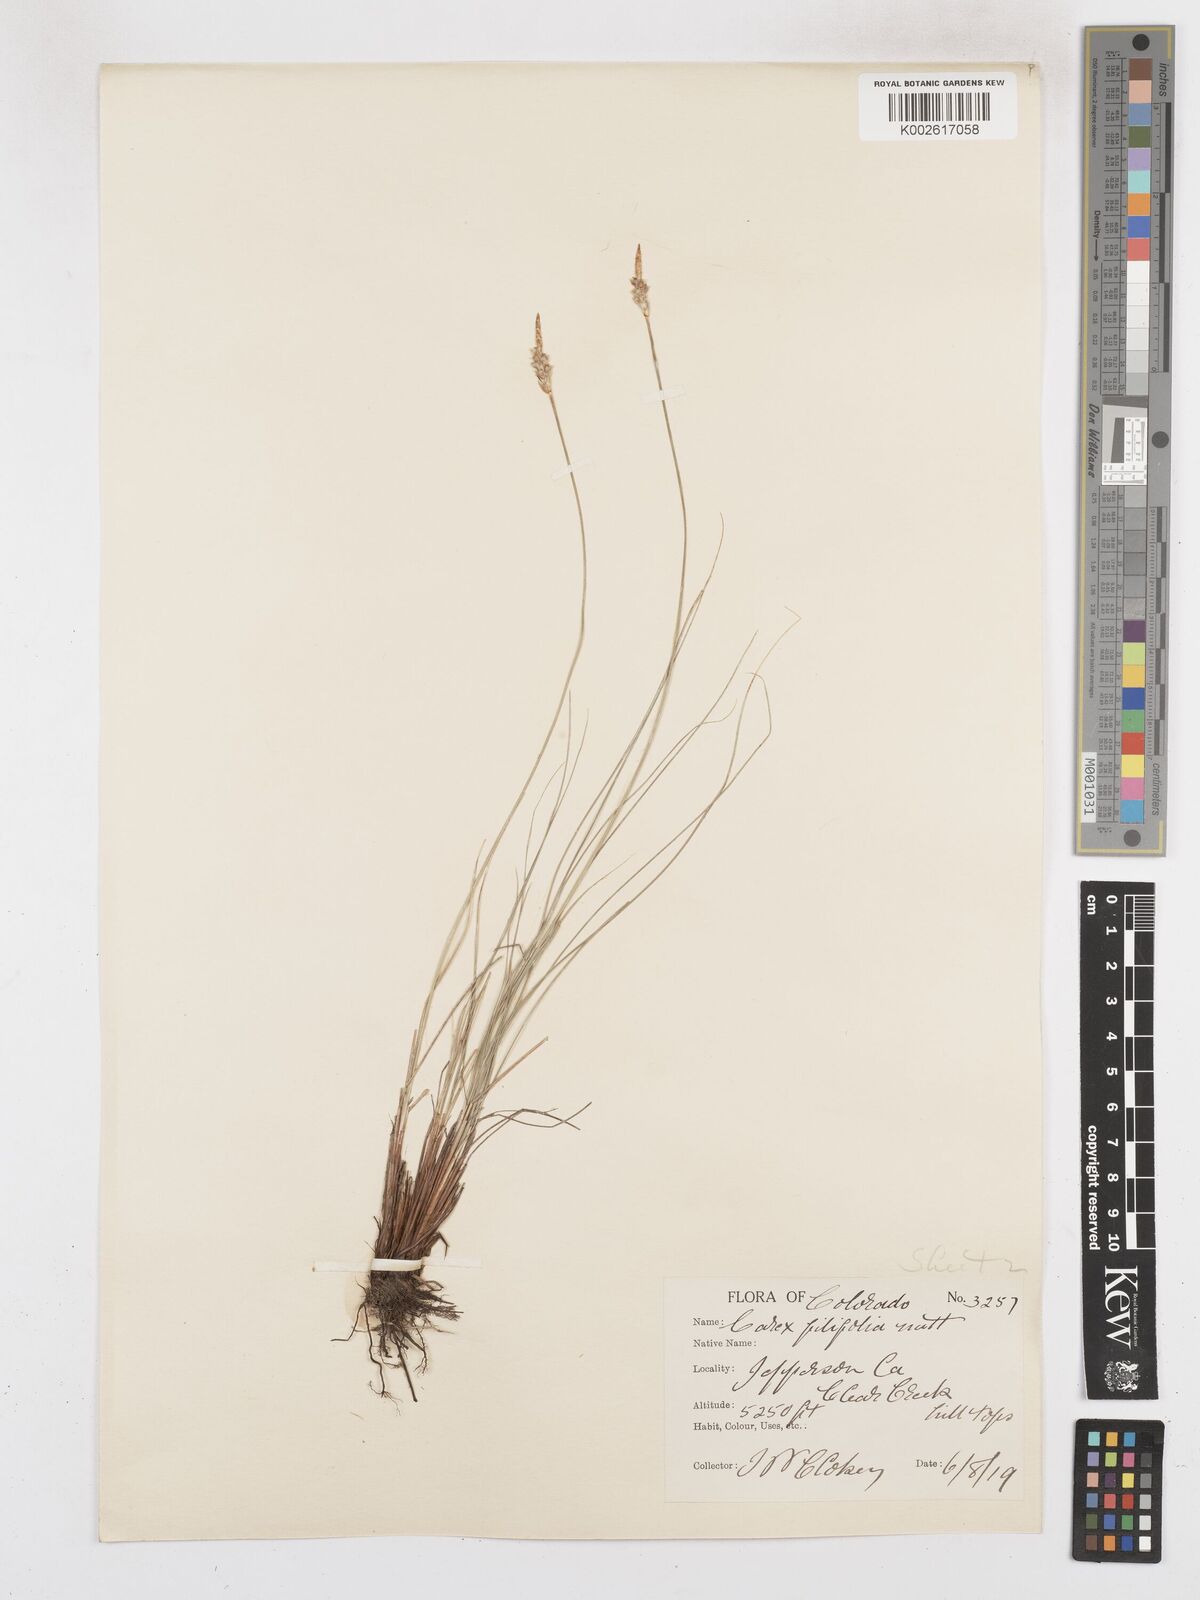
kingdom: Plantae
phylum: Tracheophyta
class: Liliopsida
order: Poales
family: Cyperaceae
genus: Carex
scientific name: Carex filifolia
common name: Threadleaf sedge
